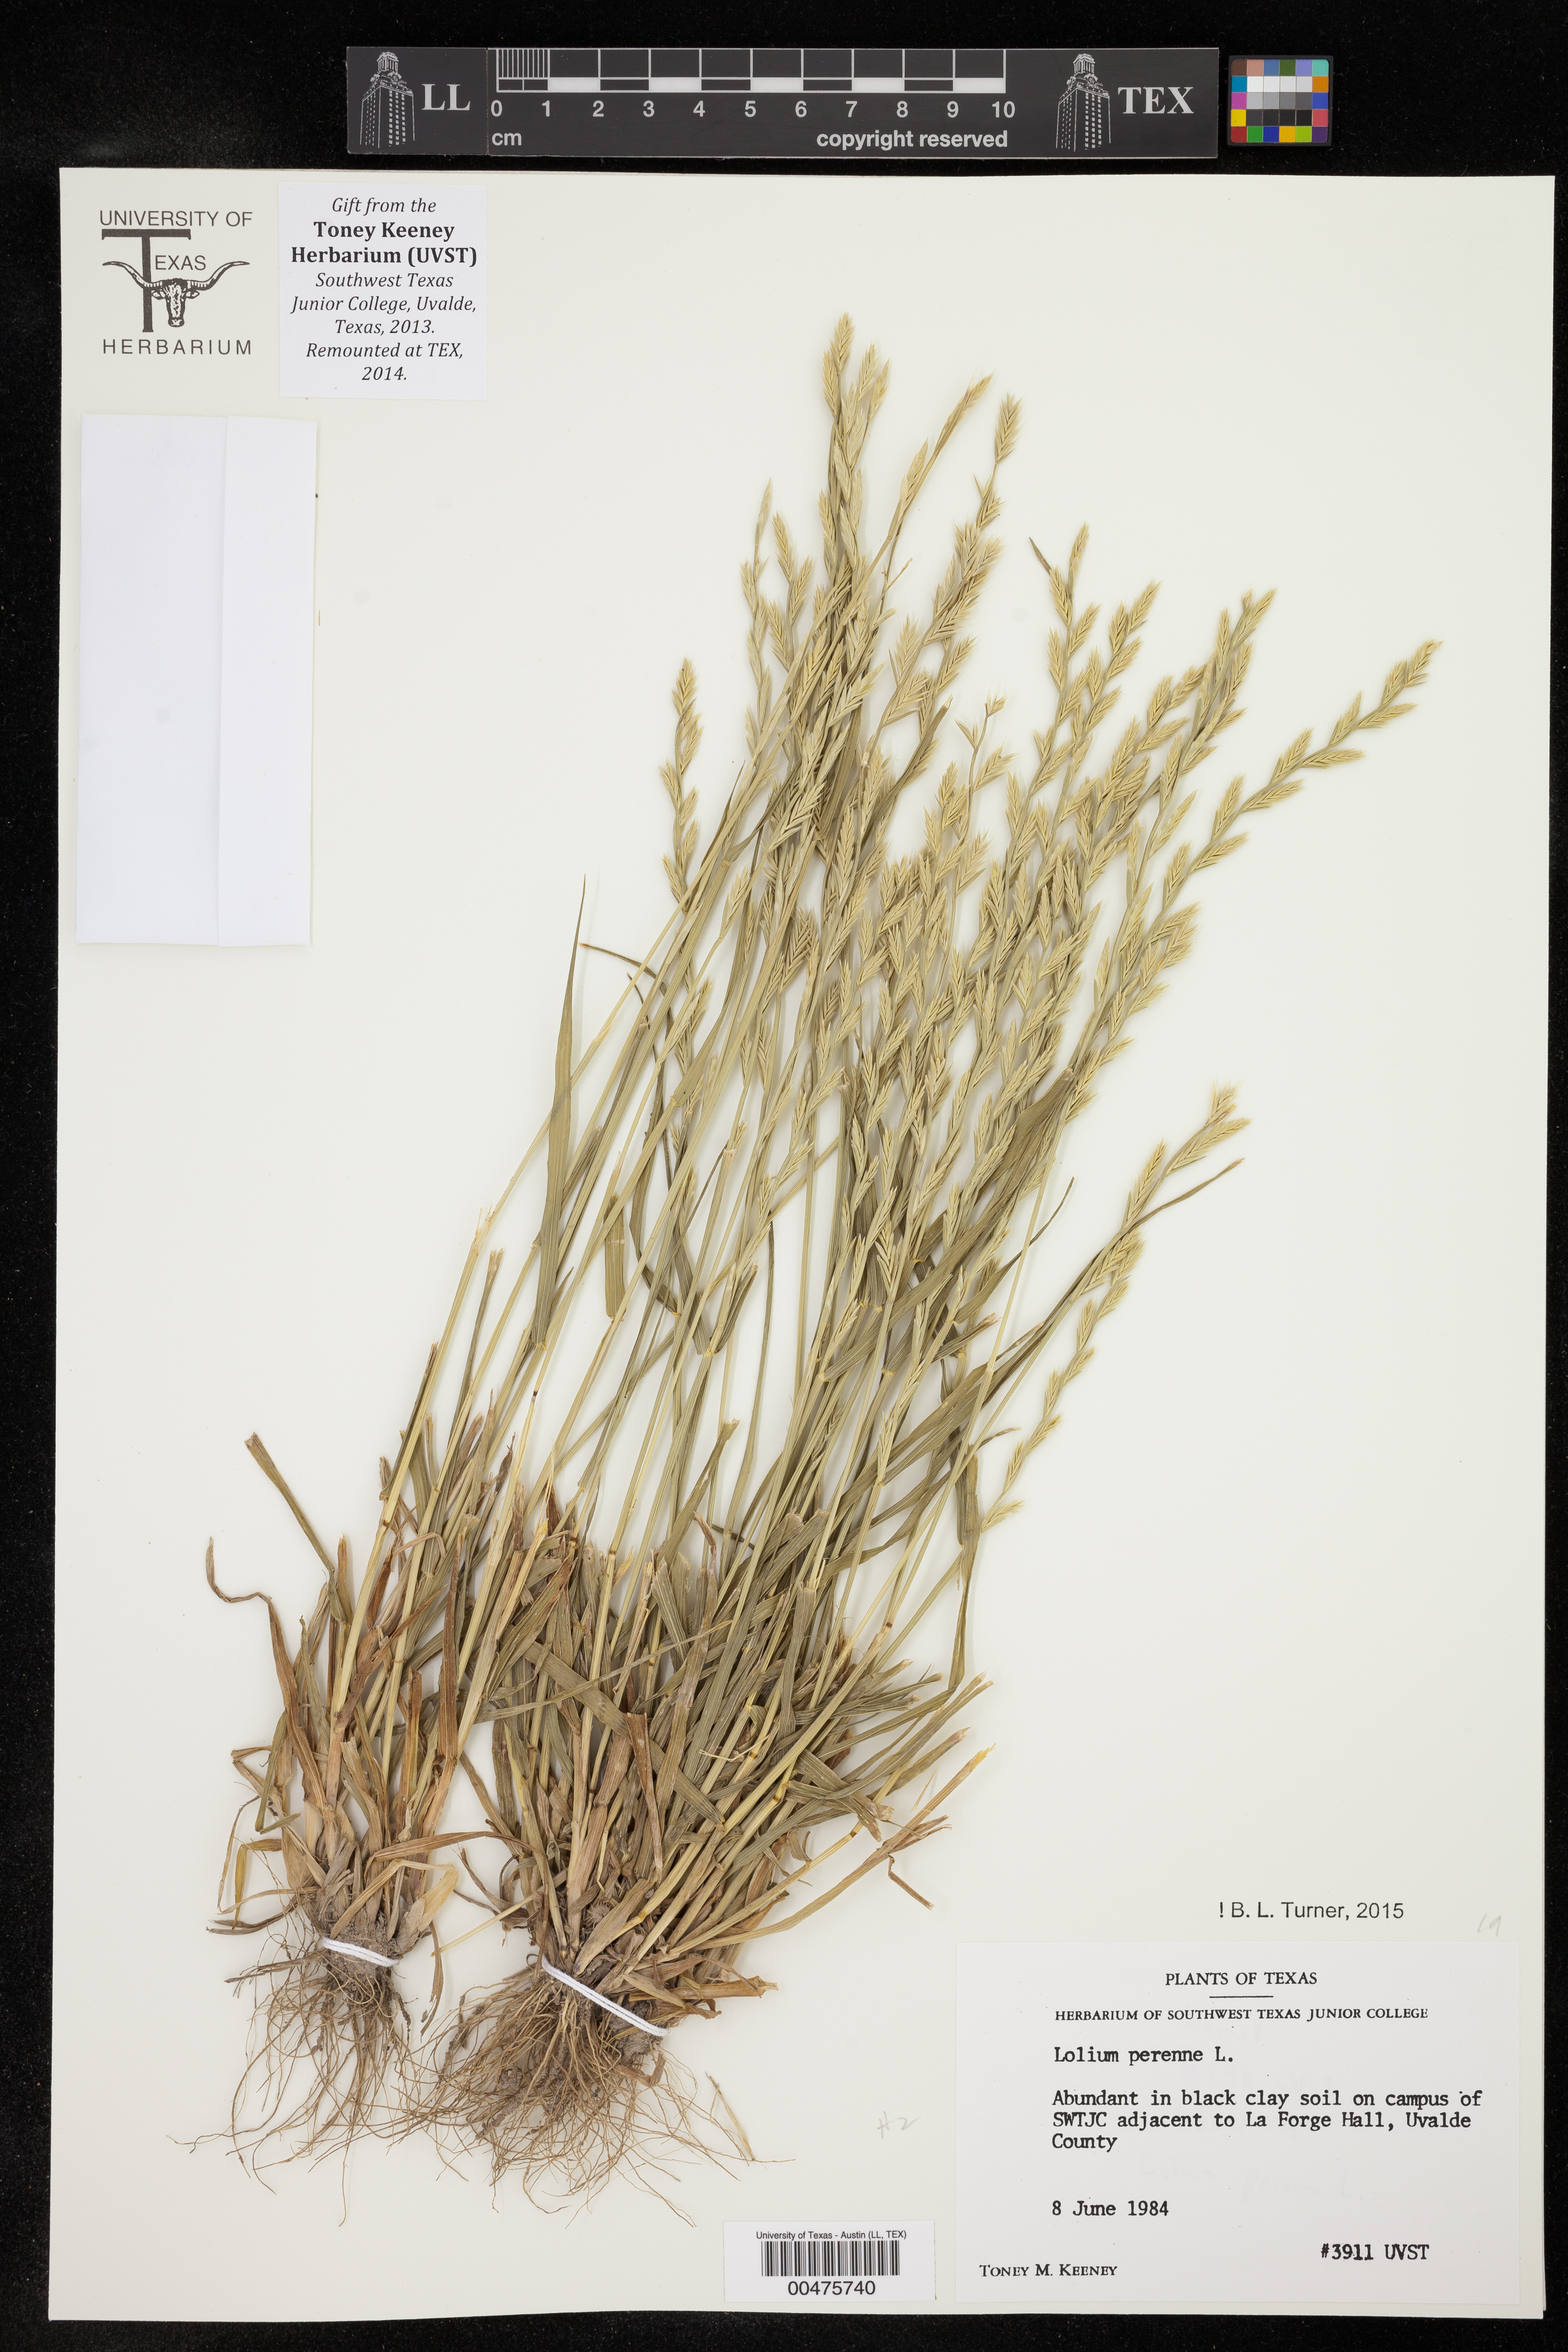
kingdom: Plantae
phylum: Tracheophyta
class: Liliopsida
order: Poales
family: Poaceae
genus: Lolium
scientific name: Lolium perenne
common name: Perennial ryegrass
